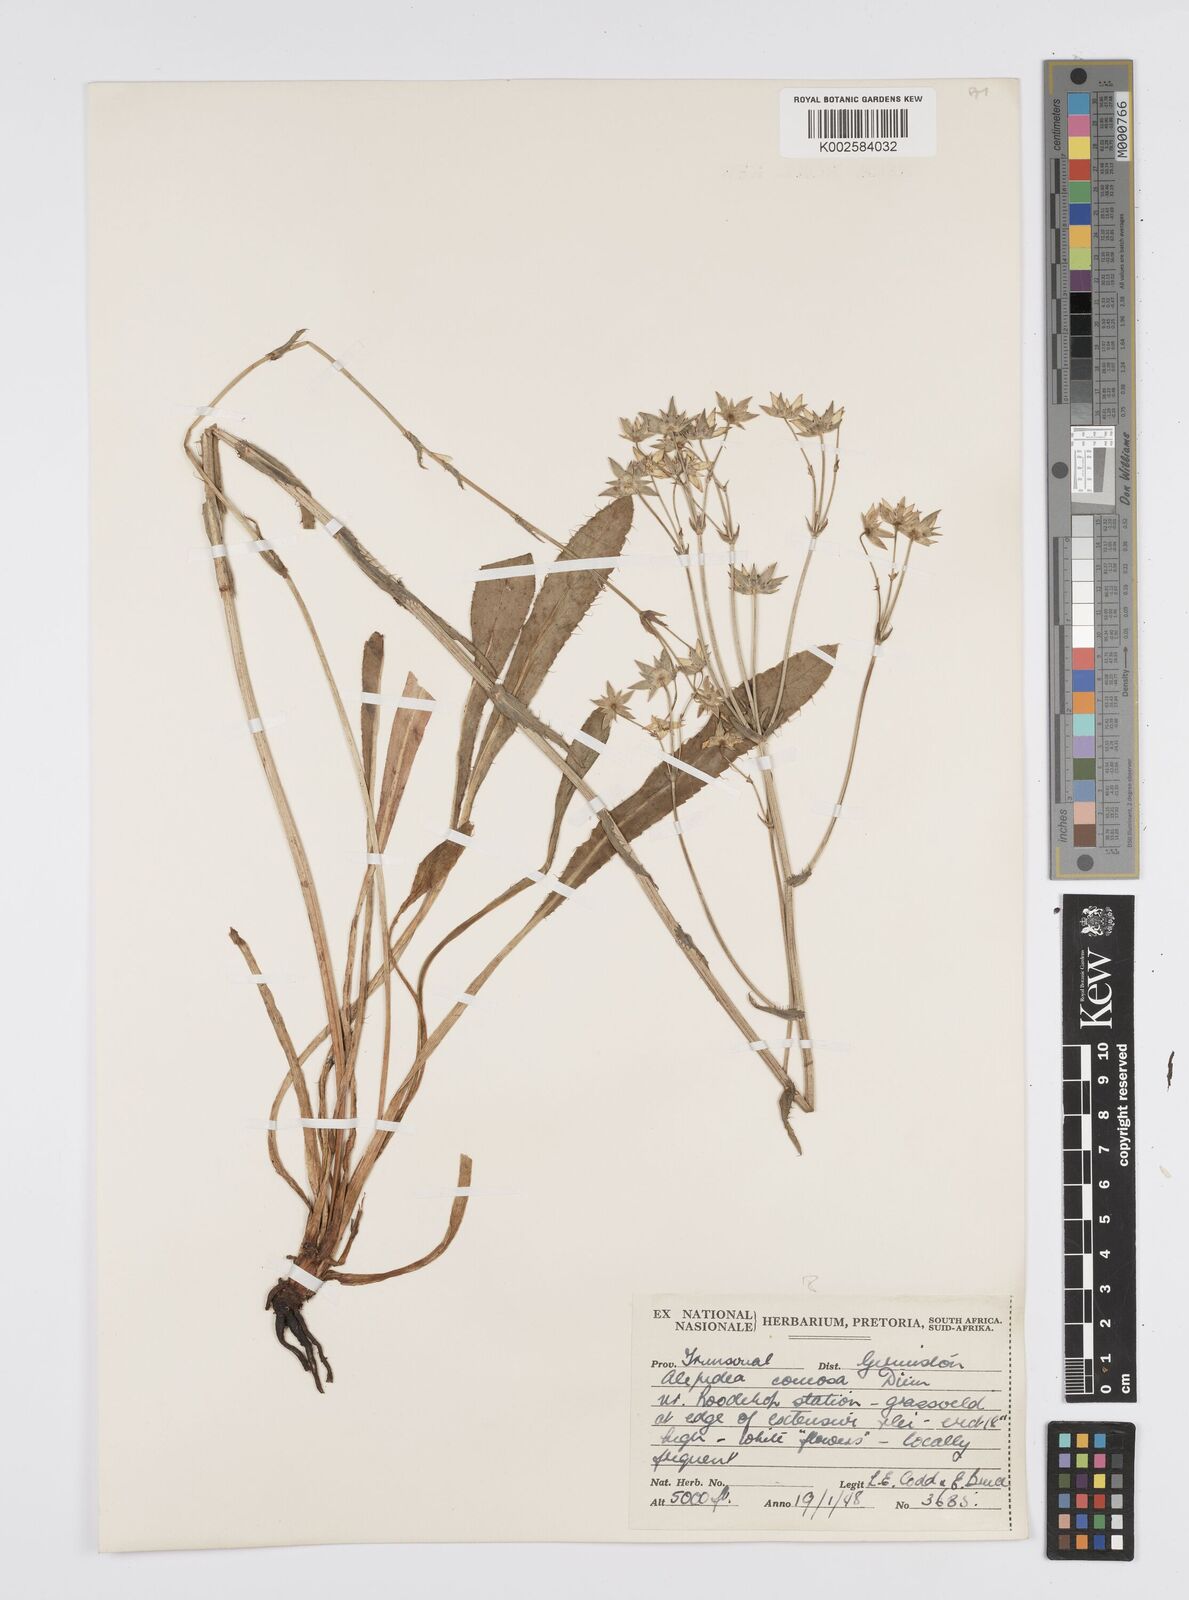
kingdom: Plantae
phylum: Tracheophyta
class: Magnoliopsida
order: Apiales
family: Apiaceae
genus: Alepidea
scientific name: Alepidea
